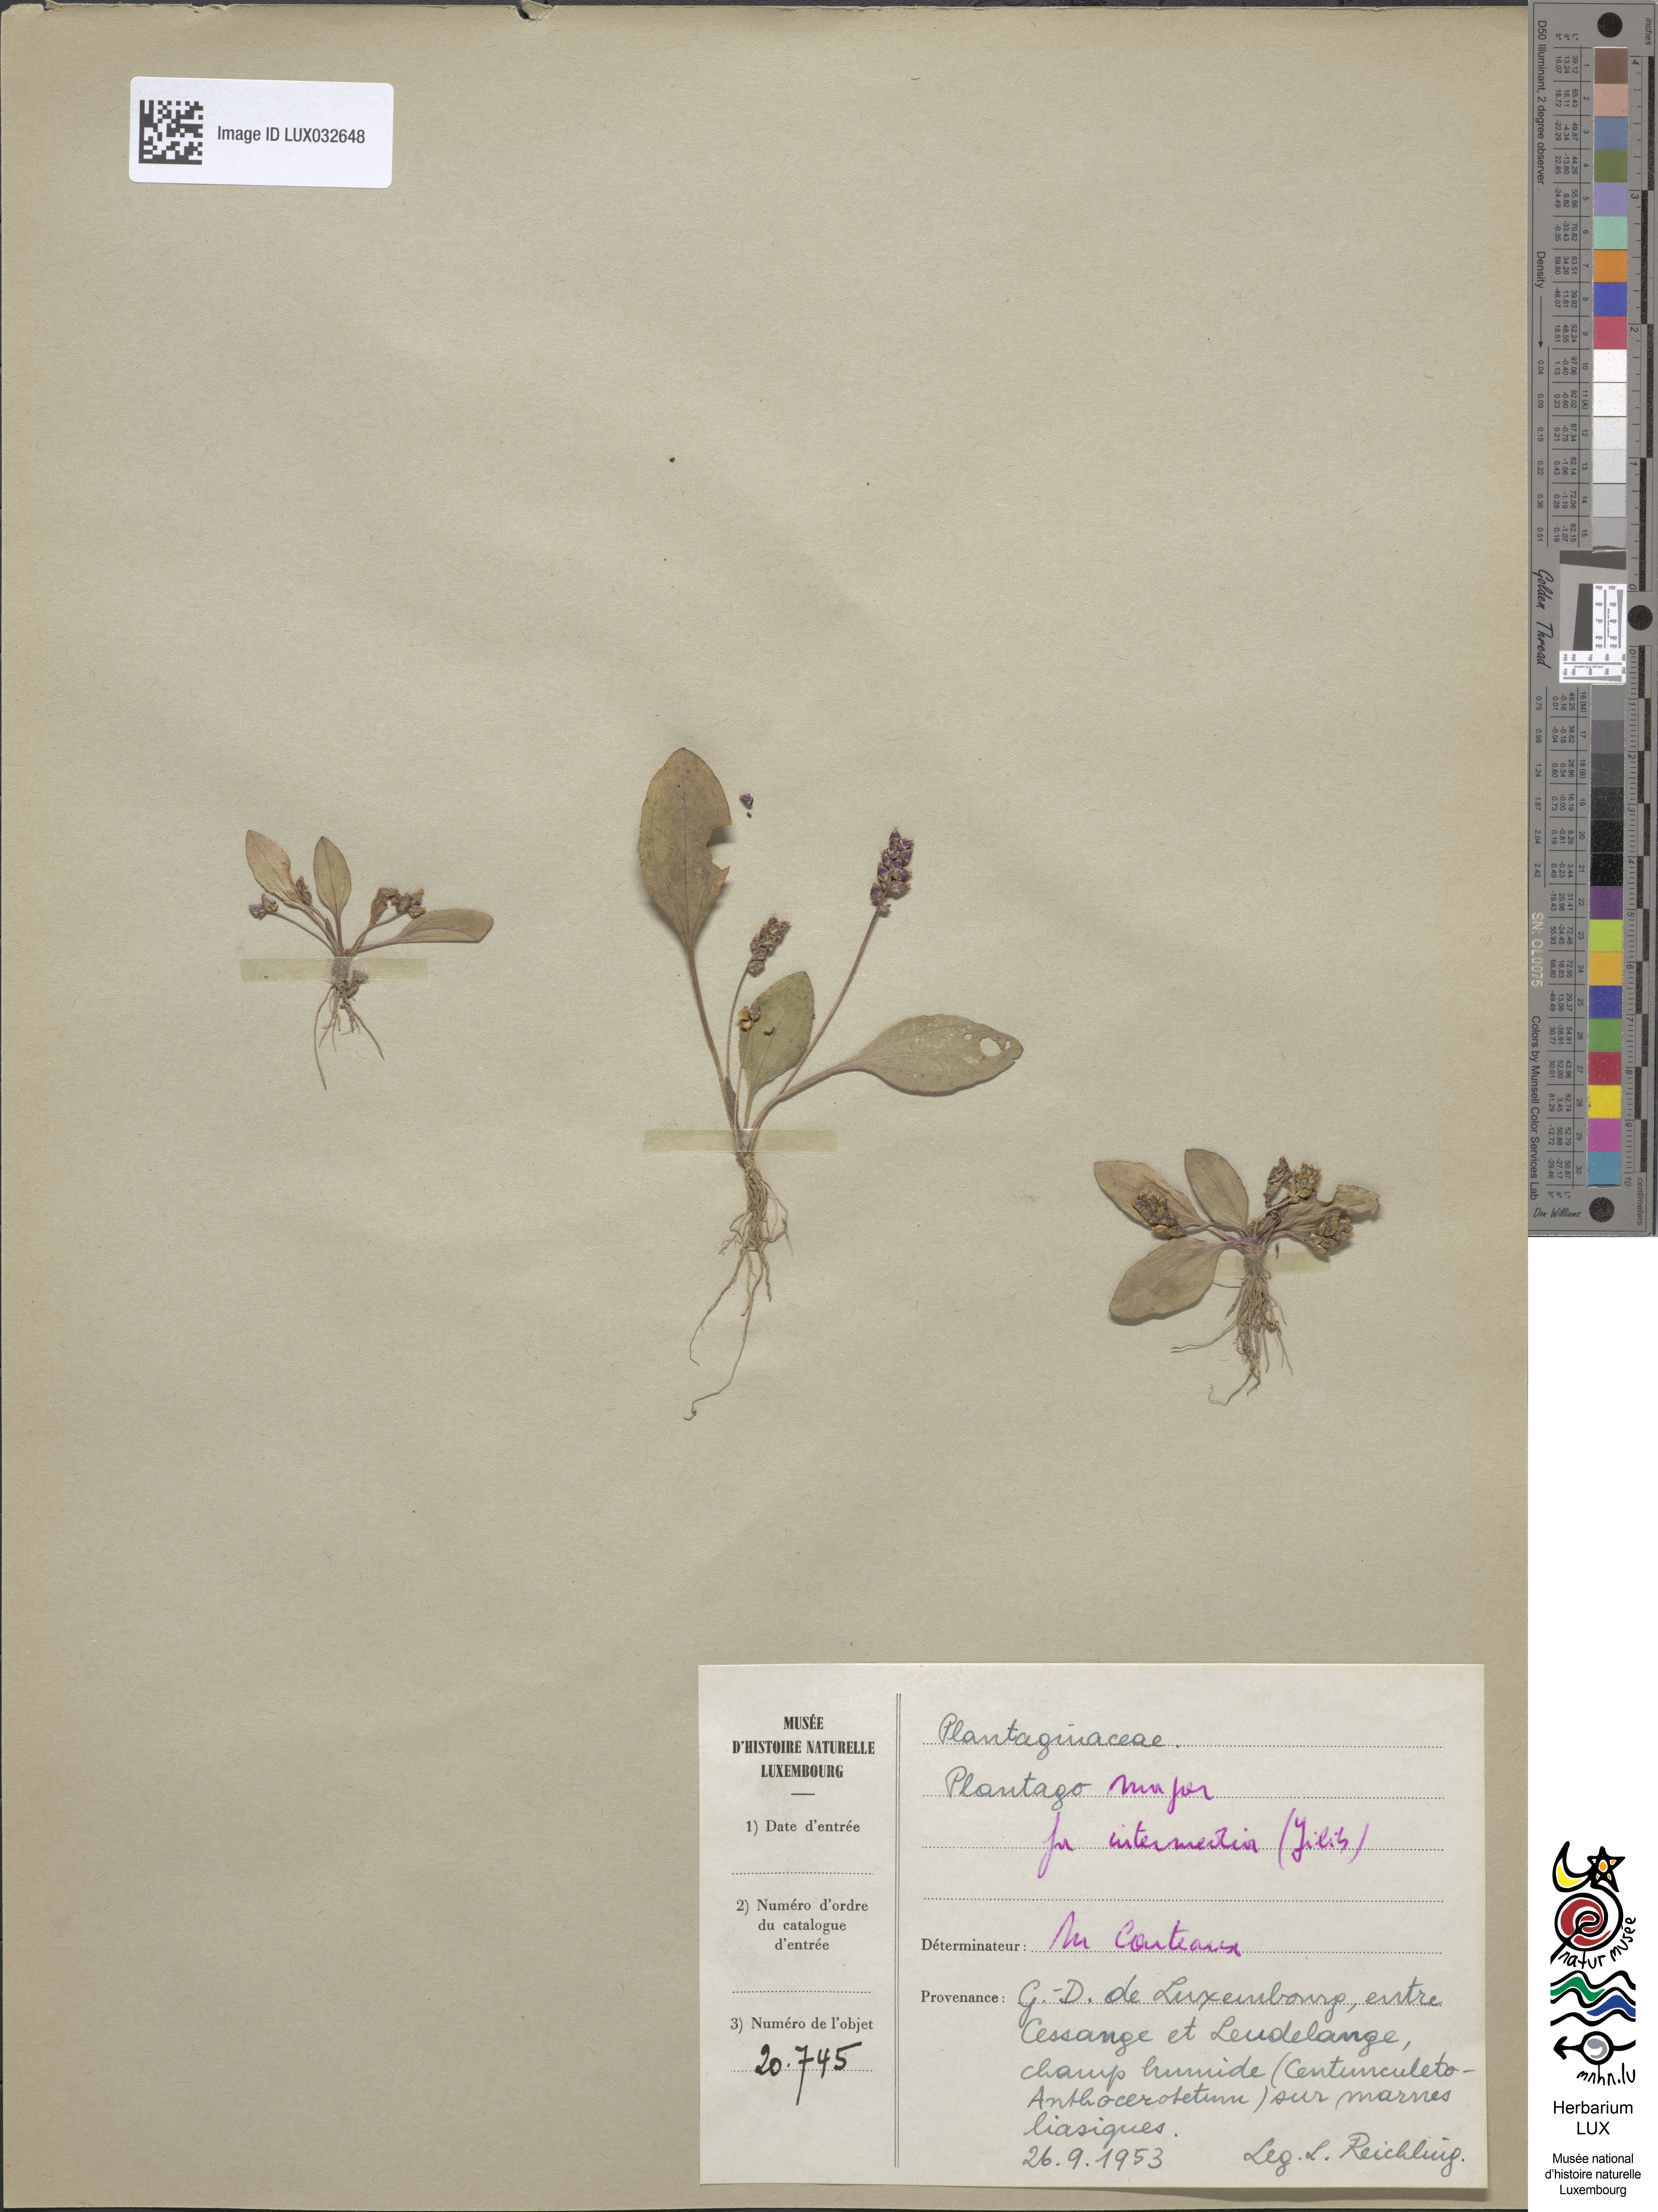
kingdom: Plantae
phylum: Tracheophyta
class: Magnoliopsida
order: Lamiales
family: Plantaginaceae
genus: Plantago
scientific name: Plantago major
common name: Common plantain
